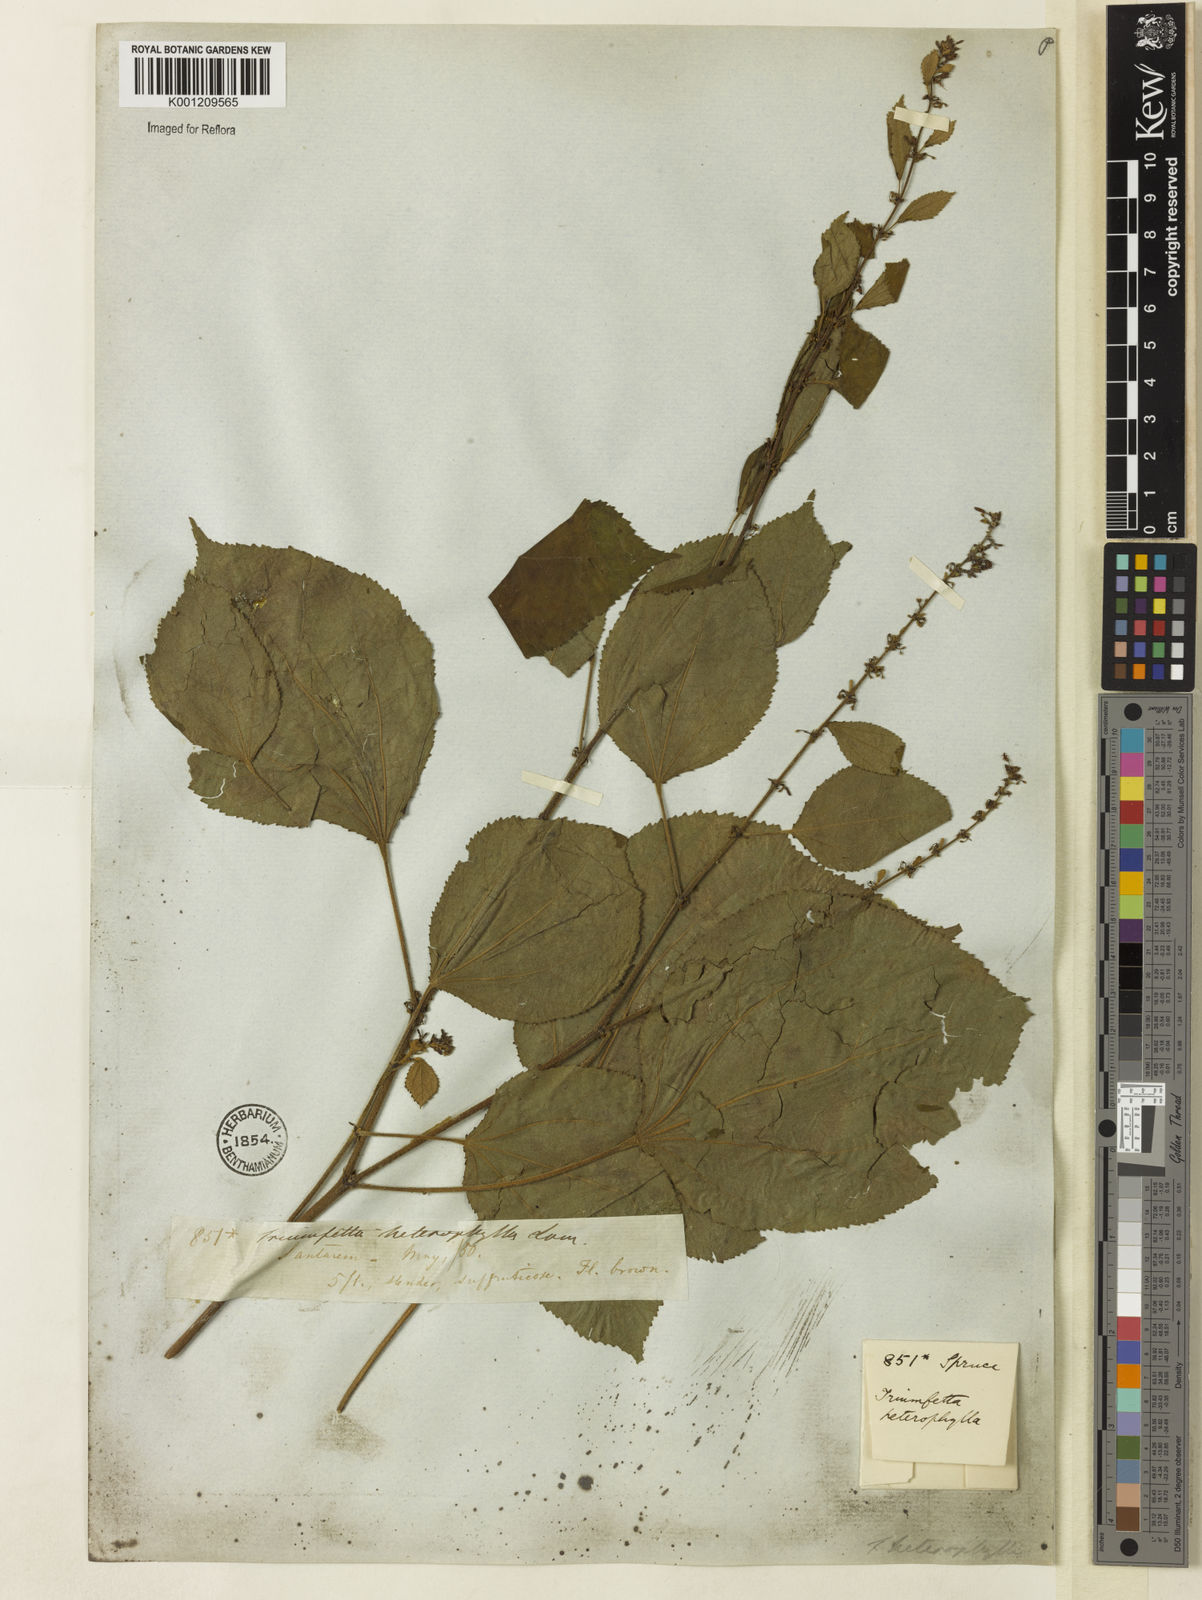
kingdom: Plantae
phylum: Tracheophyta
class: Magnoliopsida
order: Malvales
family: Malvaceae
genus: Triumfetta
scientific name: Triumfetta lappula
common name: Burbark
